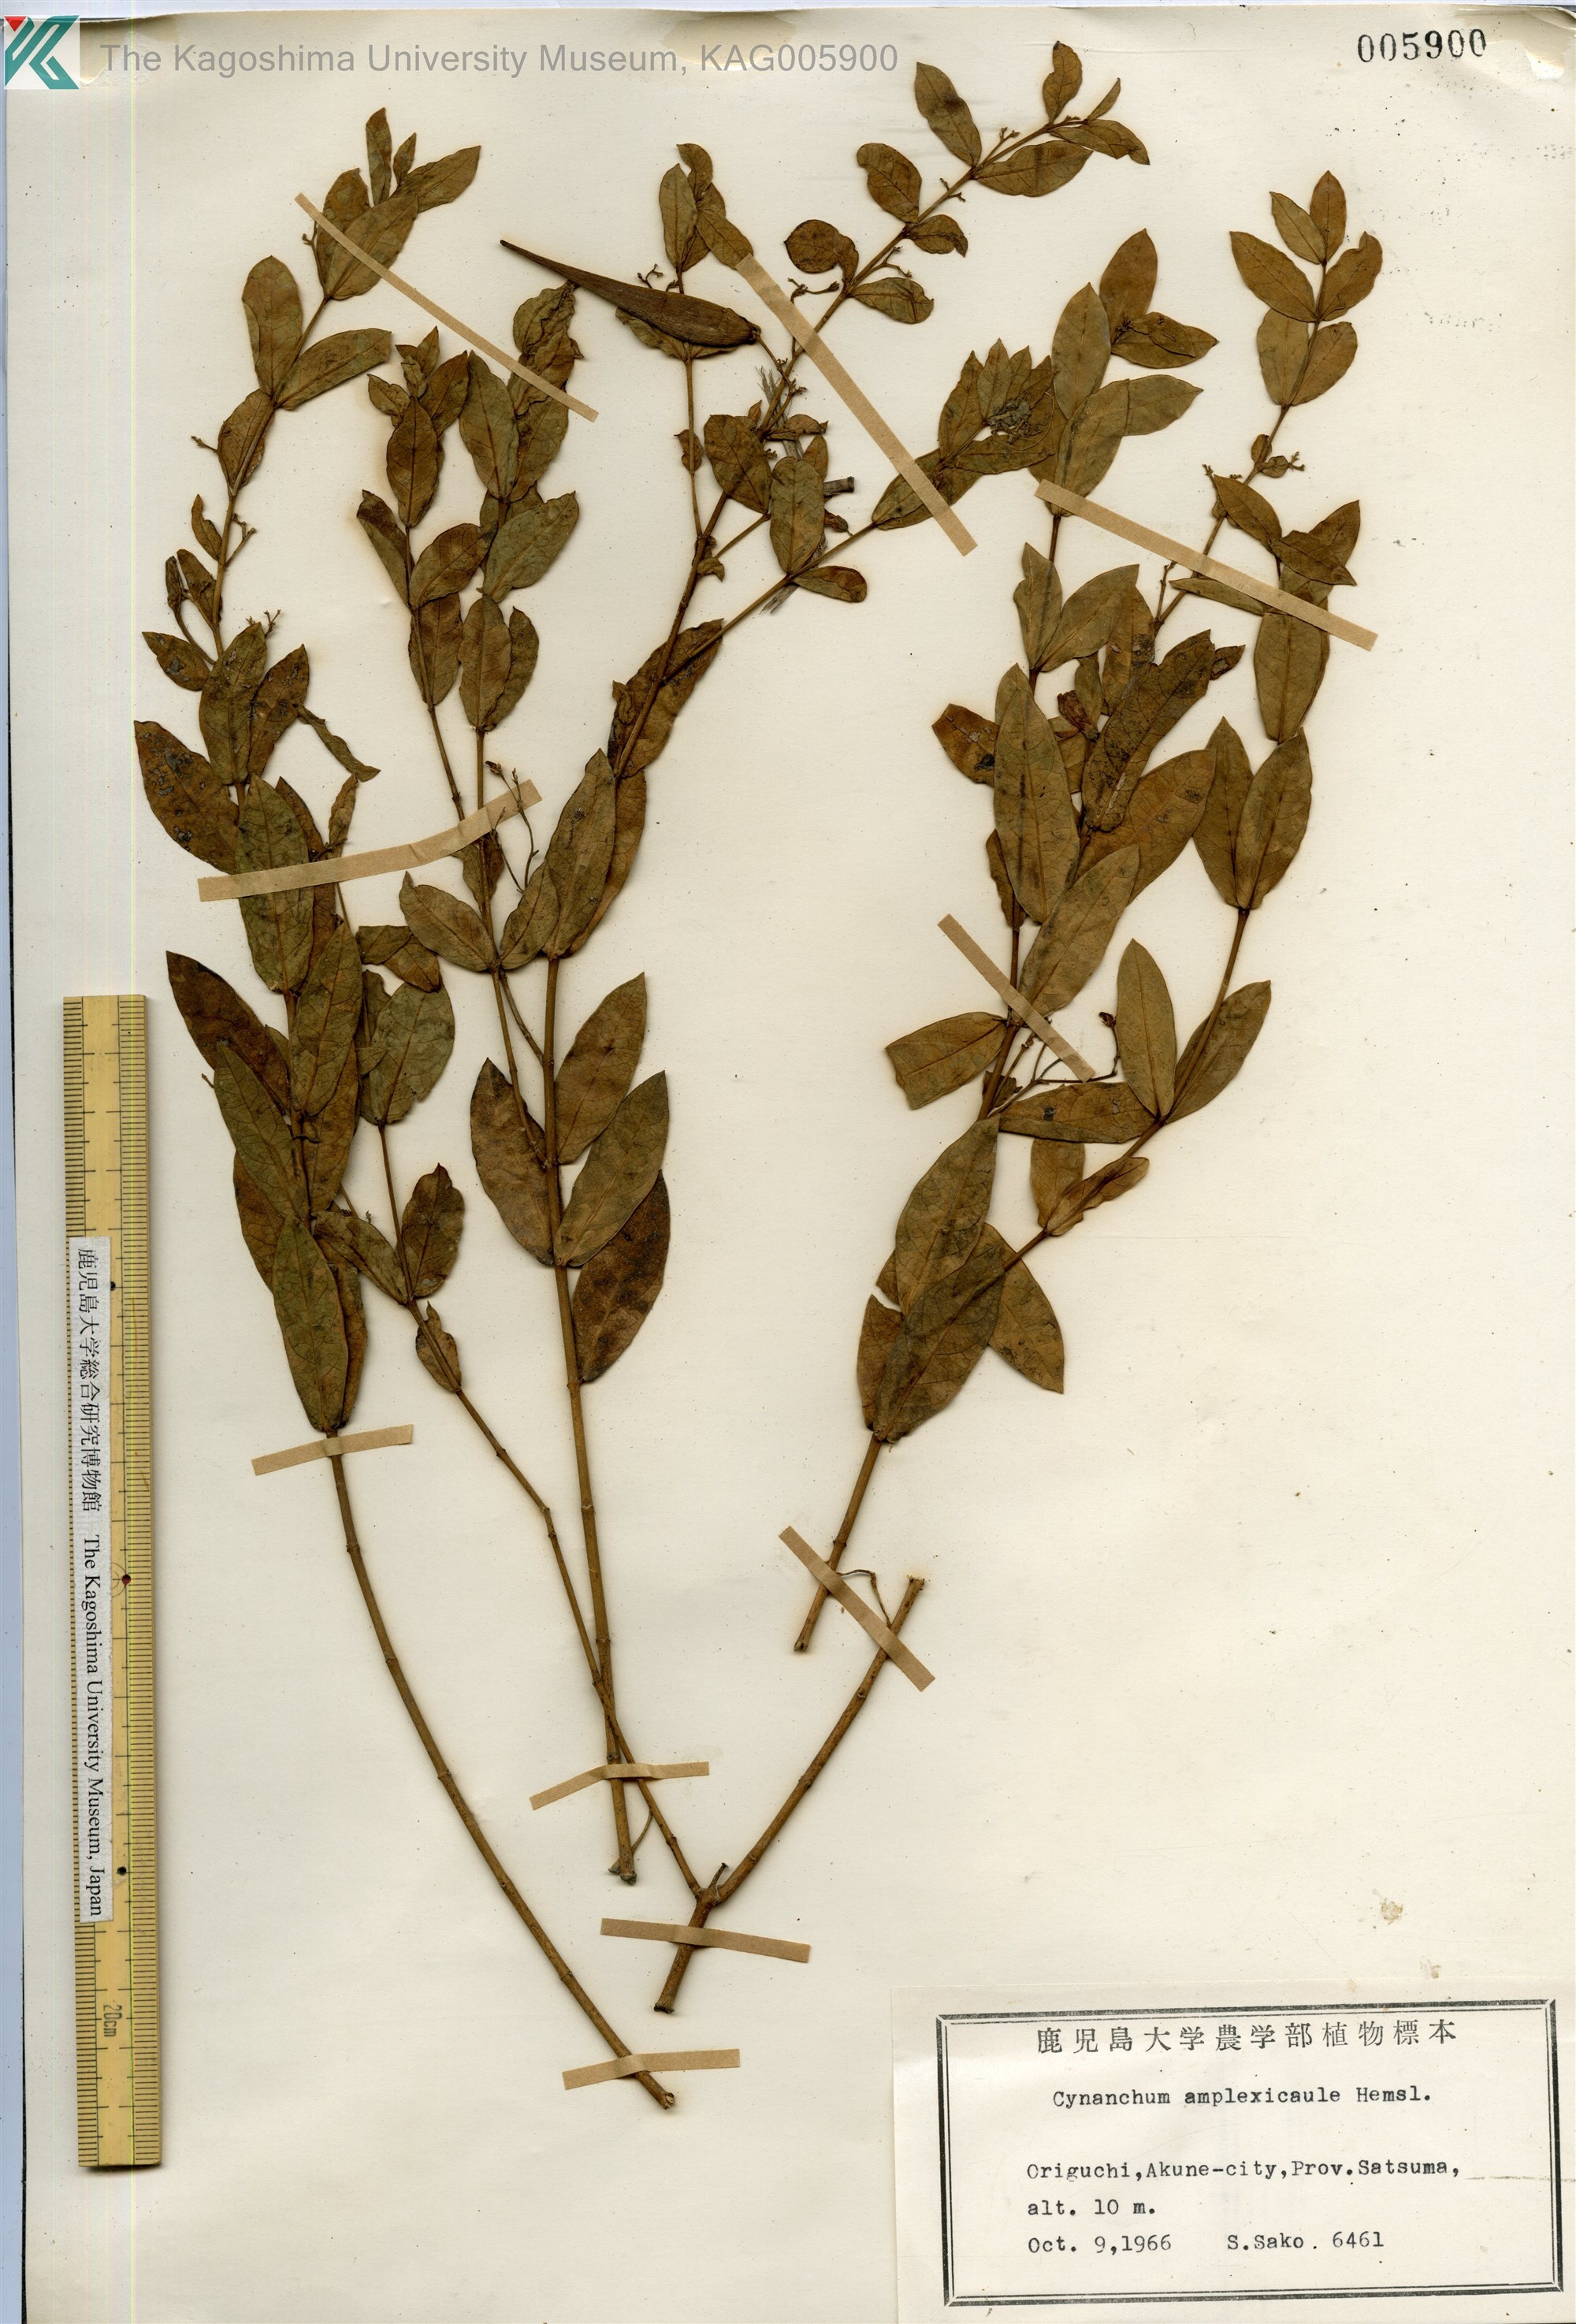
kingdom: Plantae
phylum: Tracheophyta
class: Magnoliopsida
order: Gentianales
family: Apocynaceae
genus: Vincetoxicum
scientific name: Vincetoxicum amplexicaule
